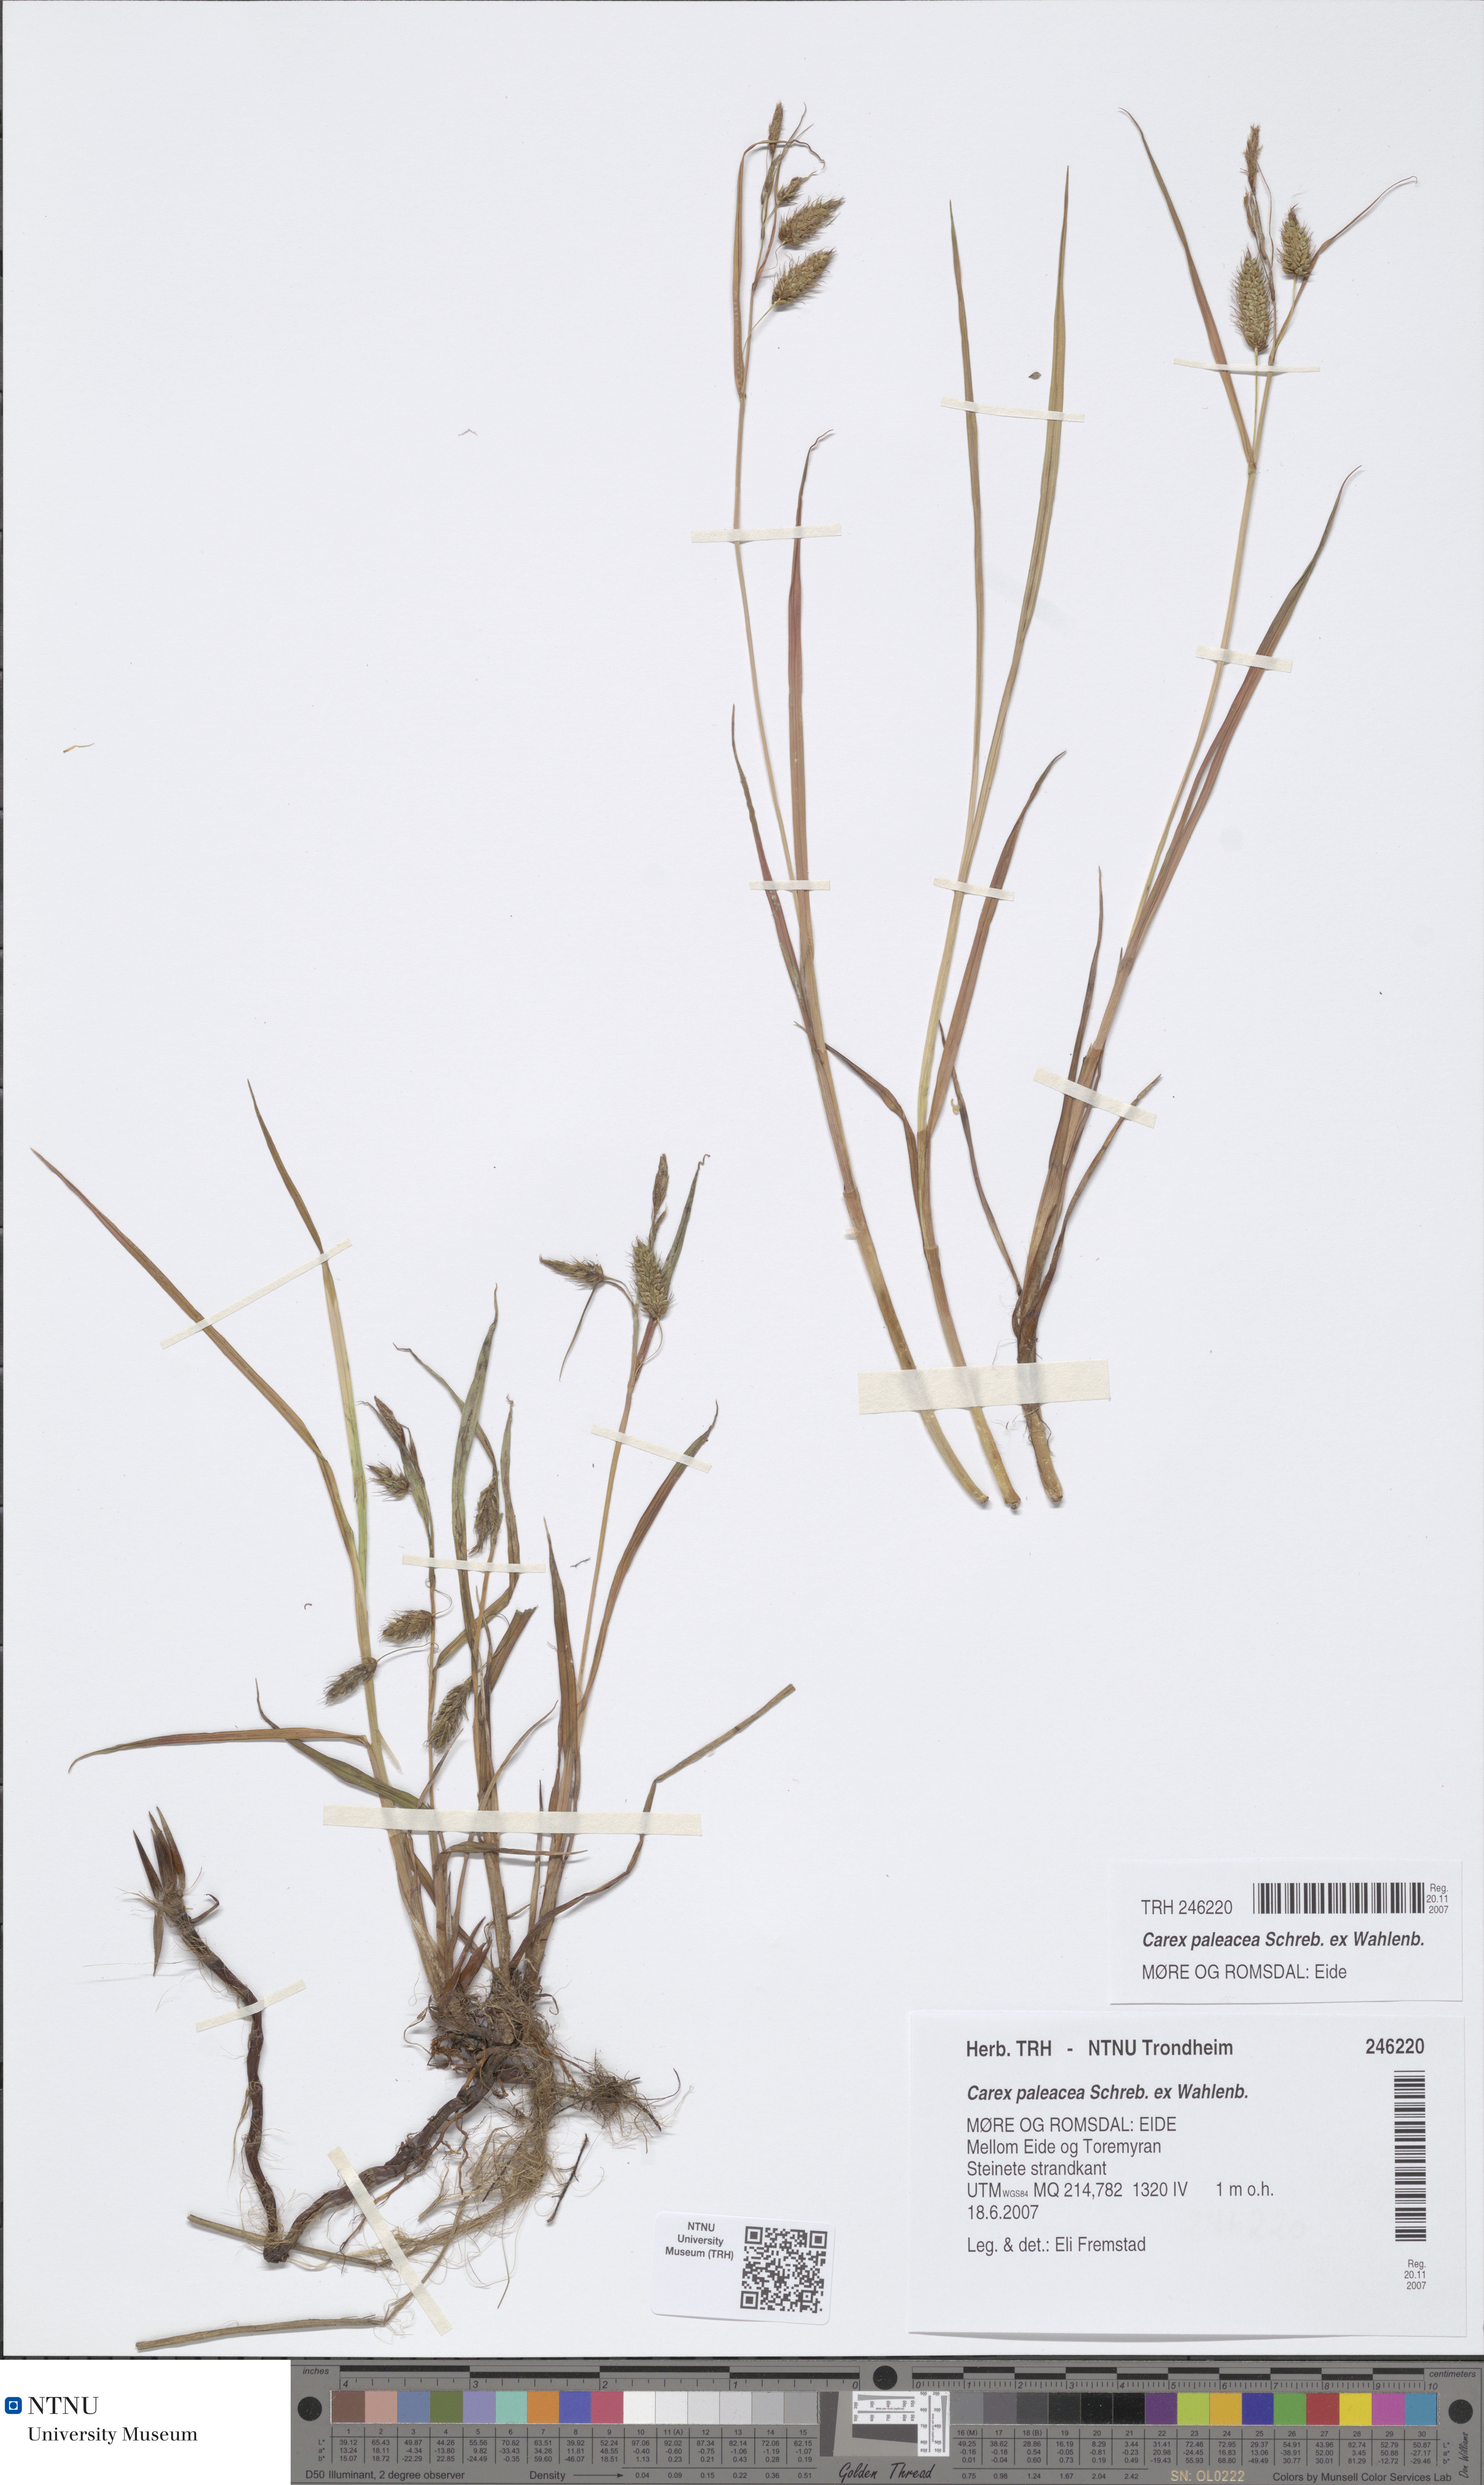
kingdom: Plantae
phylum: Tracheophyta
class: Liliopsida
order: Poales
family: Cyperaceae
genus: Carex
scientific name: Carex paleacea
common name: Chaffy sedge
